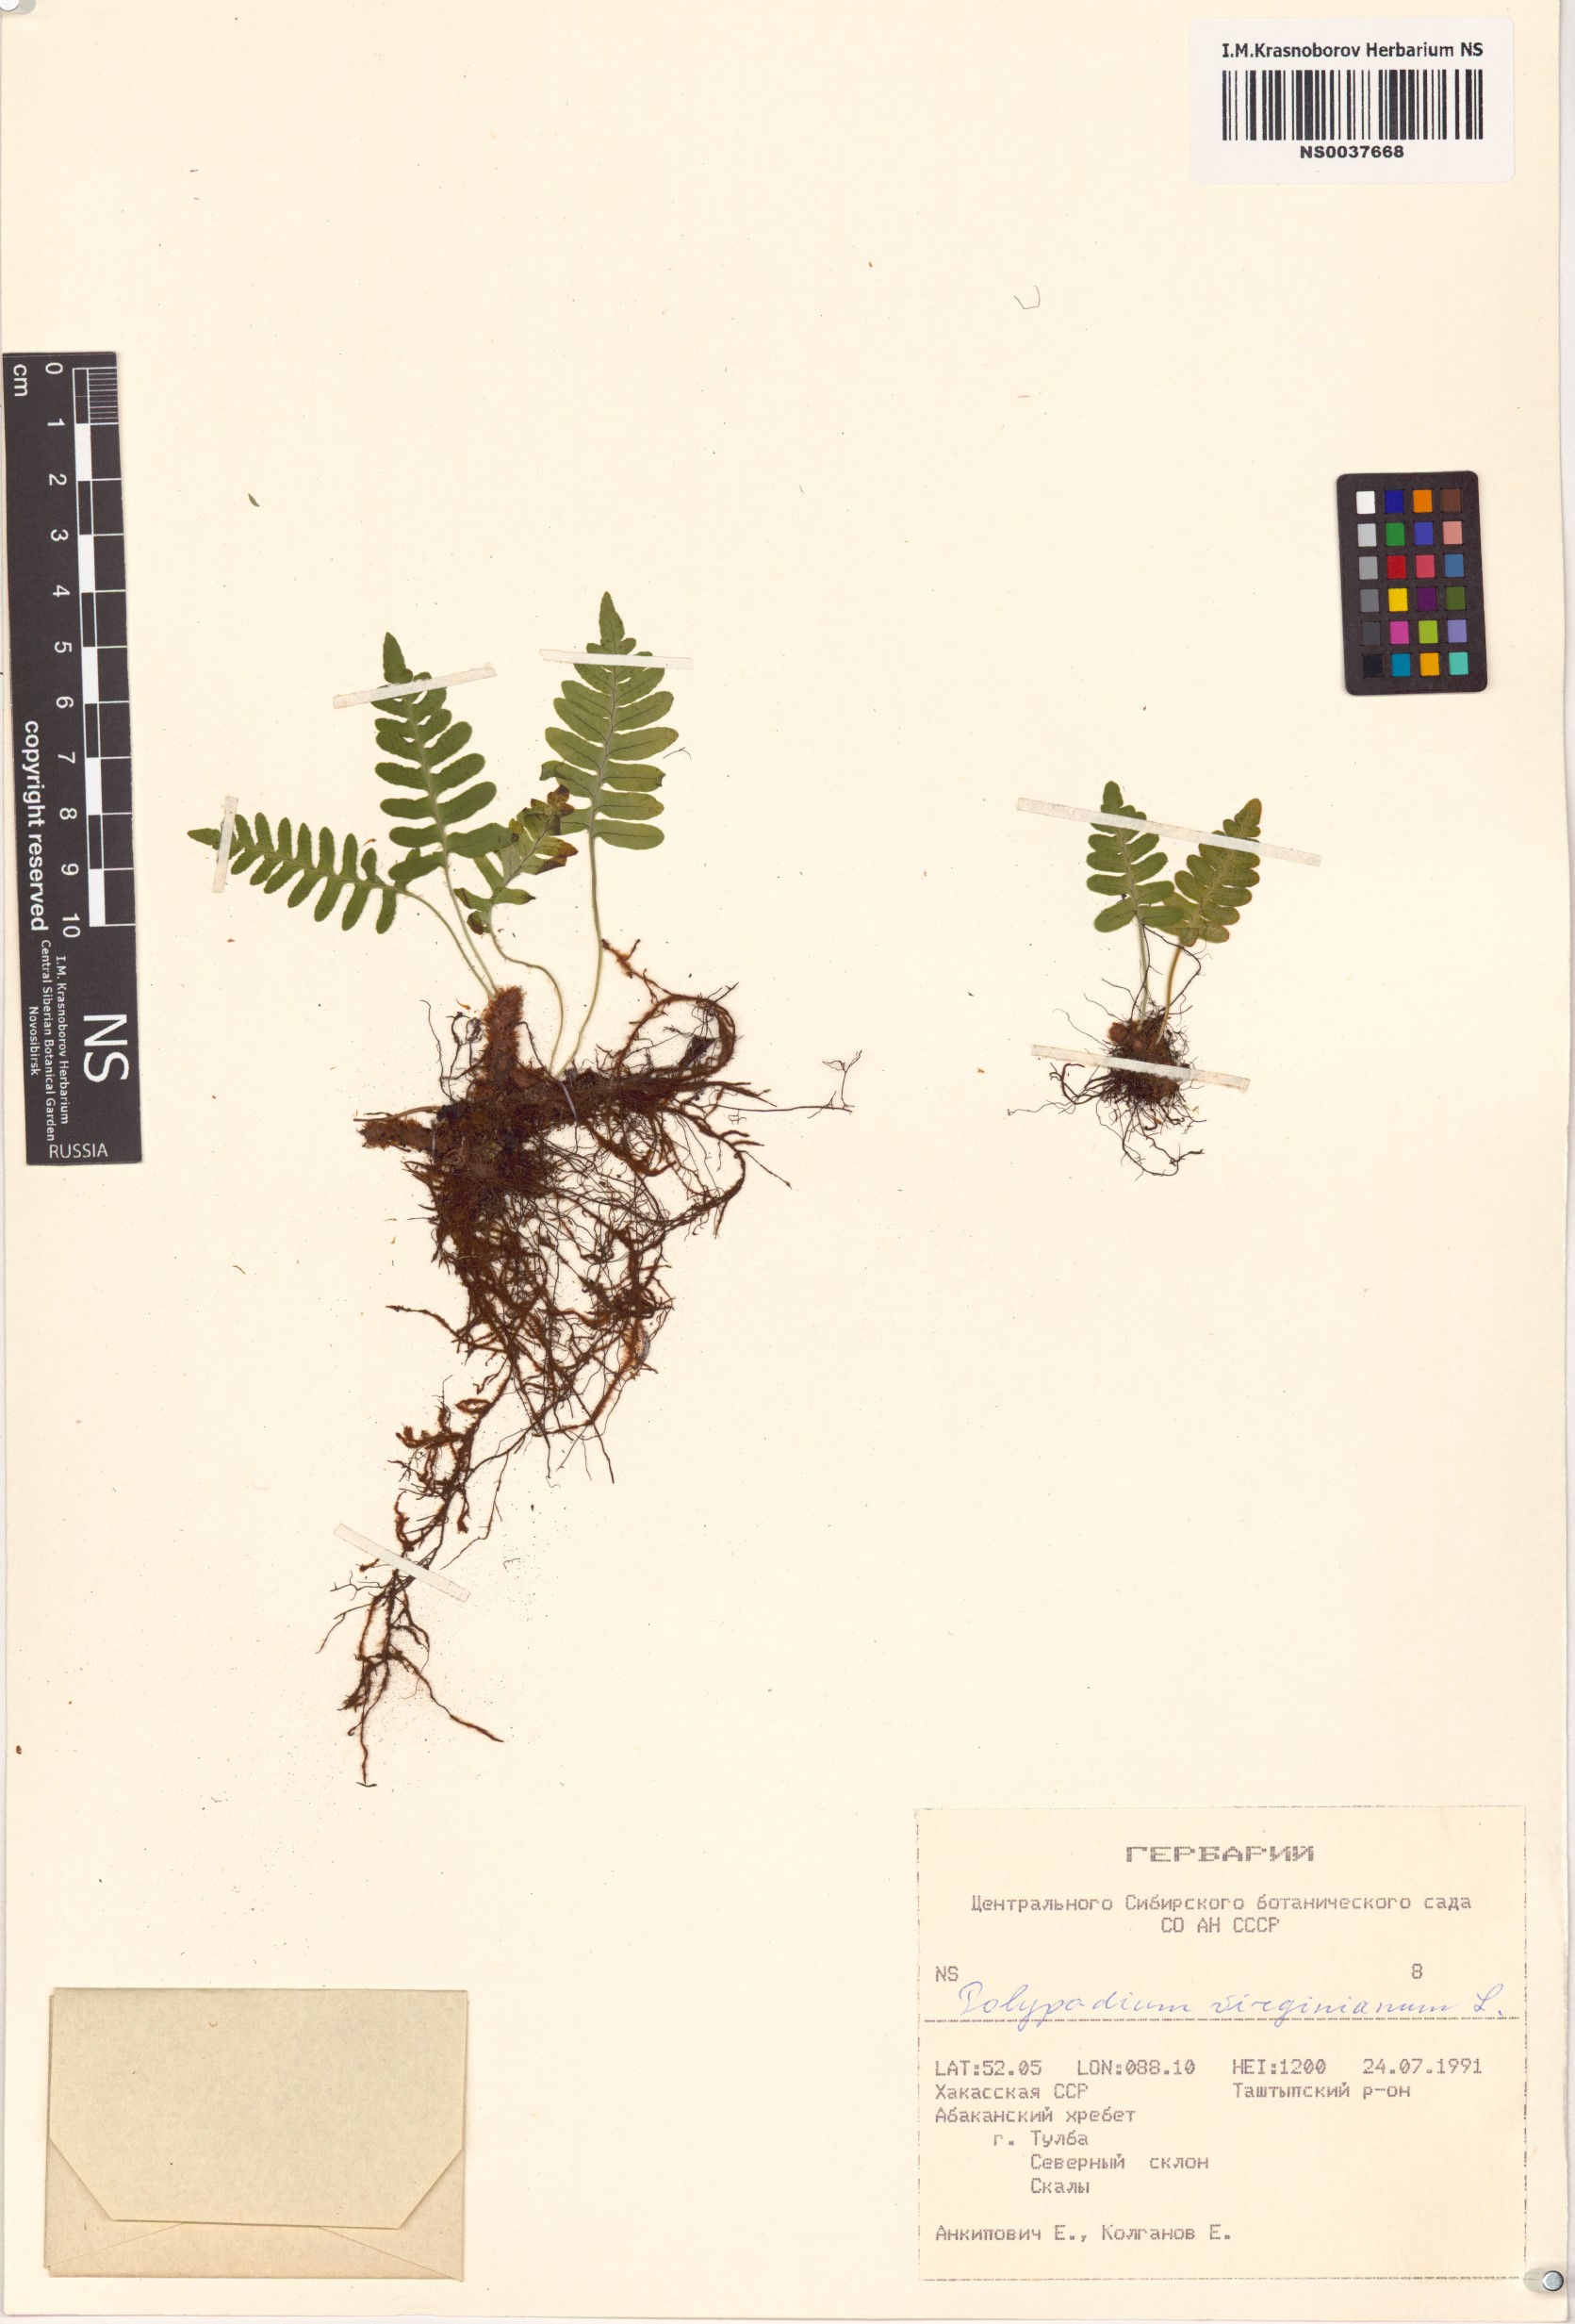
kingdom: Plantae
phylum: Tracheophyta
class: Polypodiopsida
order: Polypodiales
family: Polypodiaceae
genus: Polypodium
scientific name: Polypodium virginianum
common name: American wall fern
